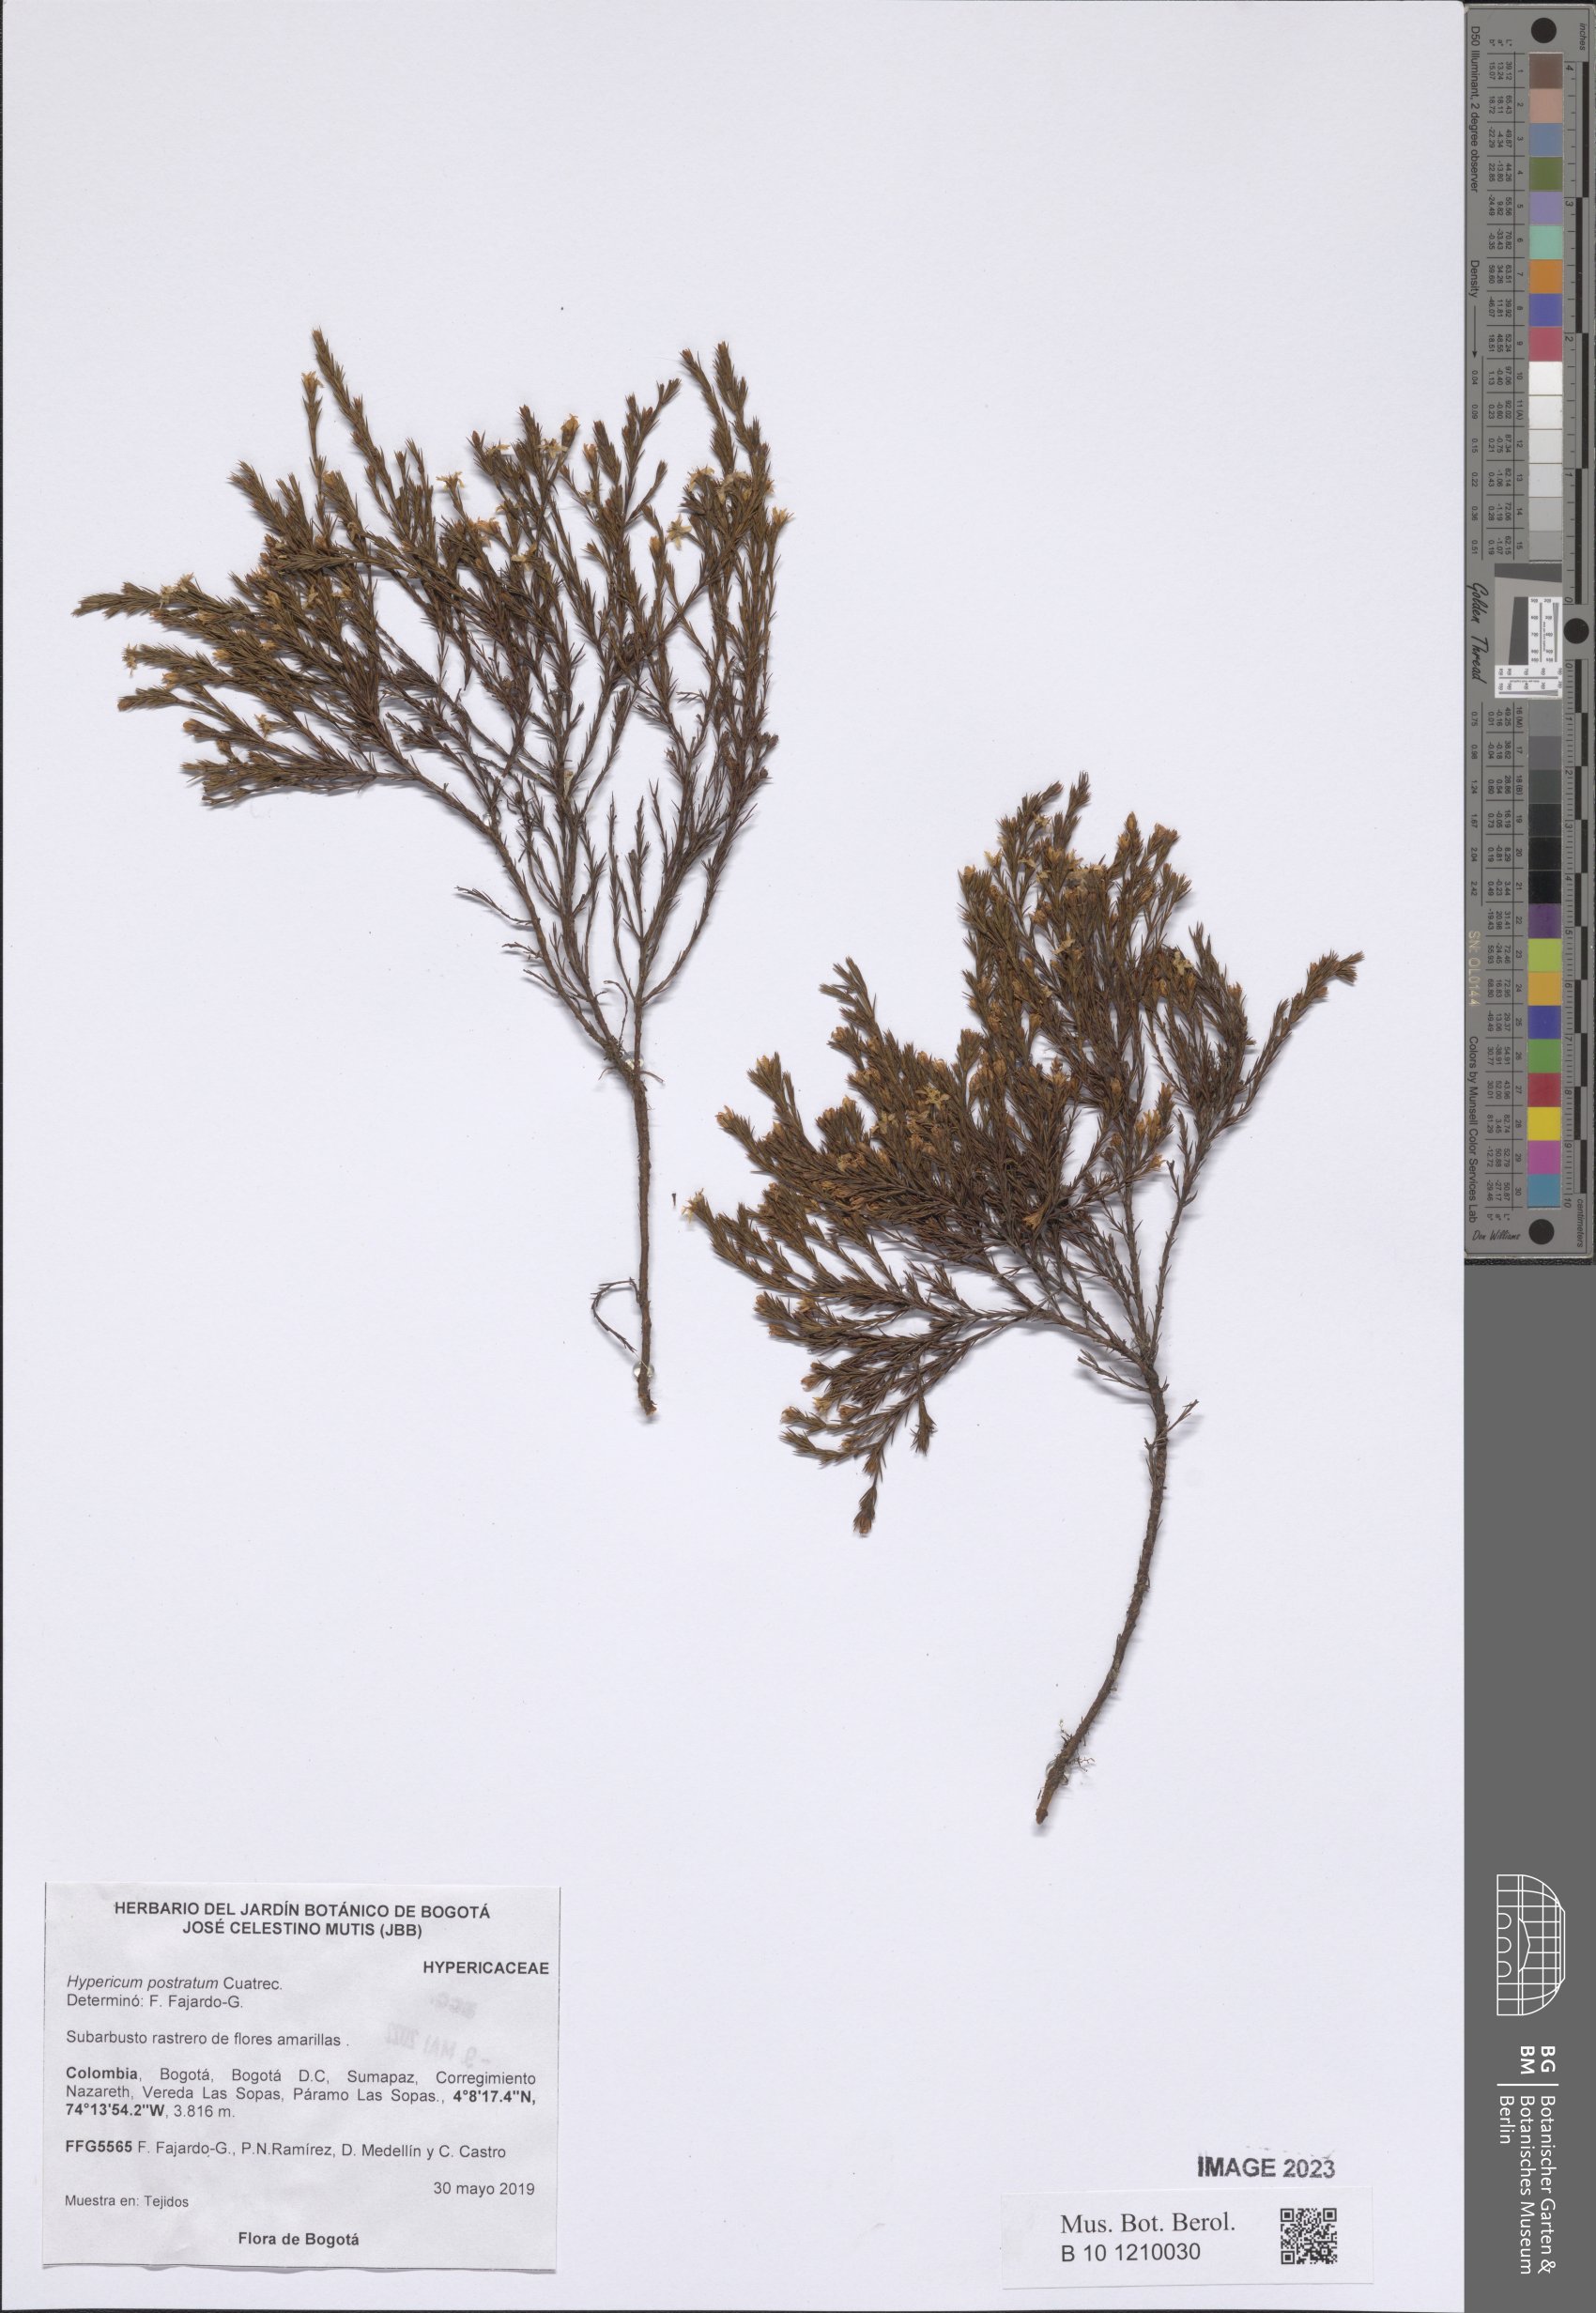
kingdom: Plantae
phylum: Tracheophyta
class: Magnoliopsida
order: Malpighiales
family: Hypericaceae
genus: Hypericum
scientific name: Hypericum prostratum
